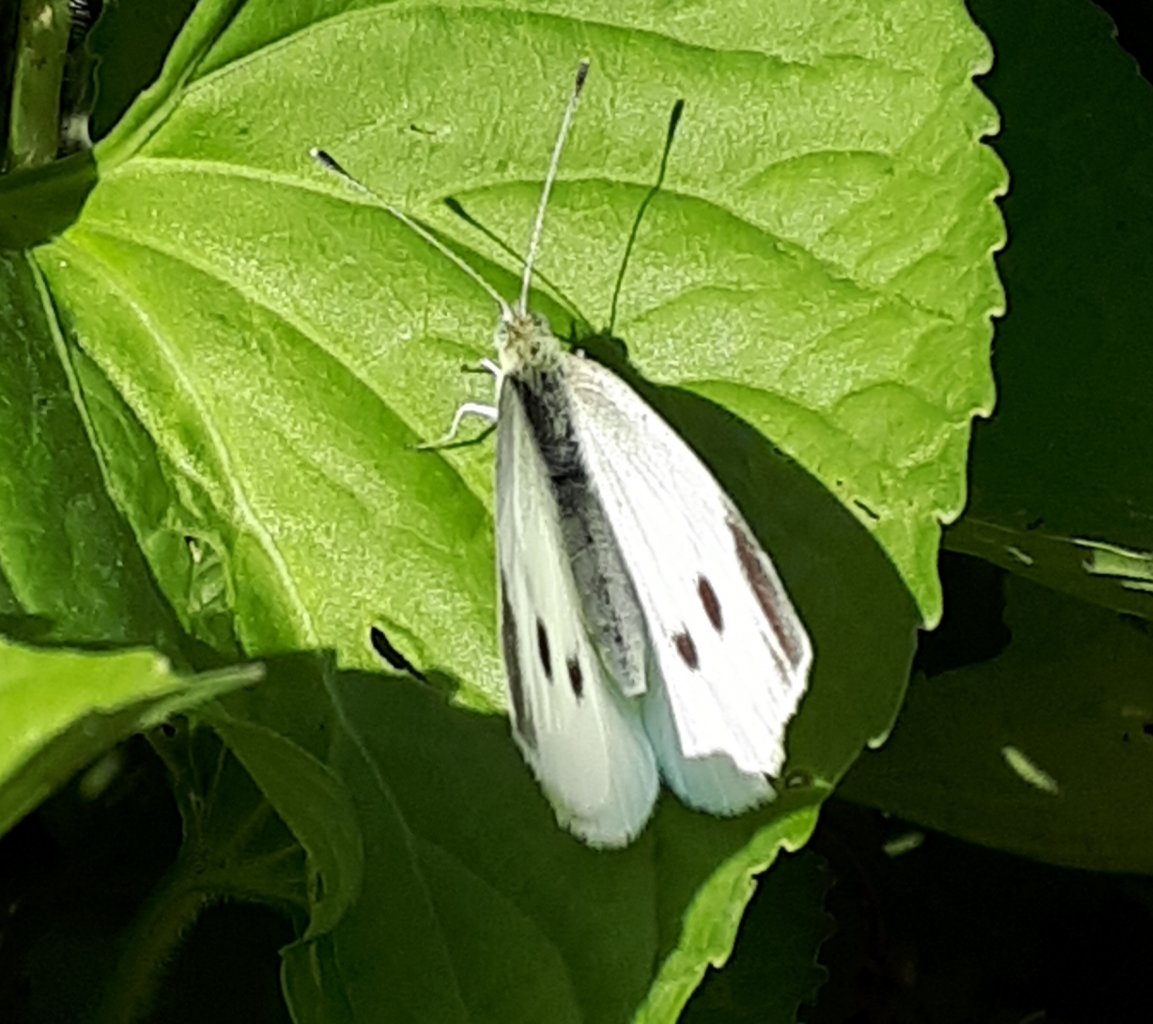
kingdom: Animalia
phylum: Arthropoda
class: Insecta
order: Lepidoptera
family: Pieridae
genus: Pieris
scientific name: Pieris rapae
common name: Cabbage White
